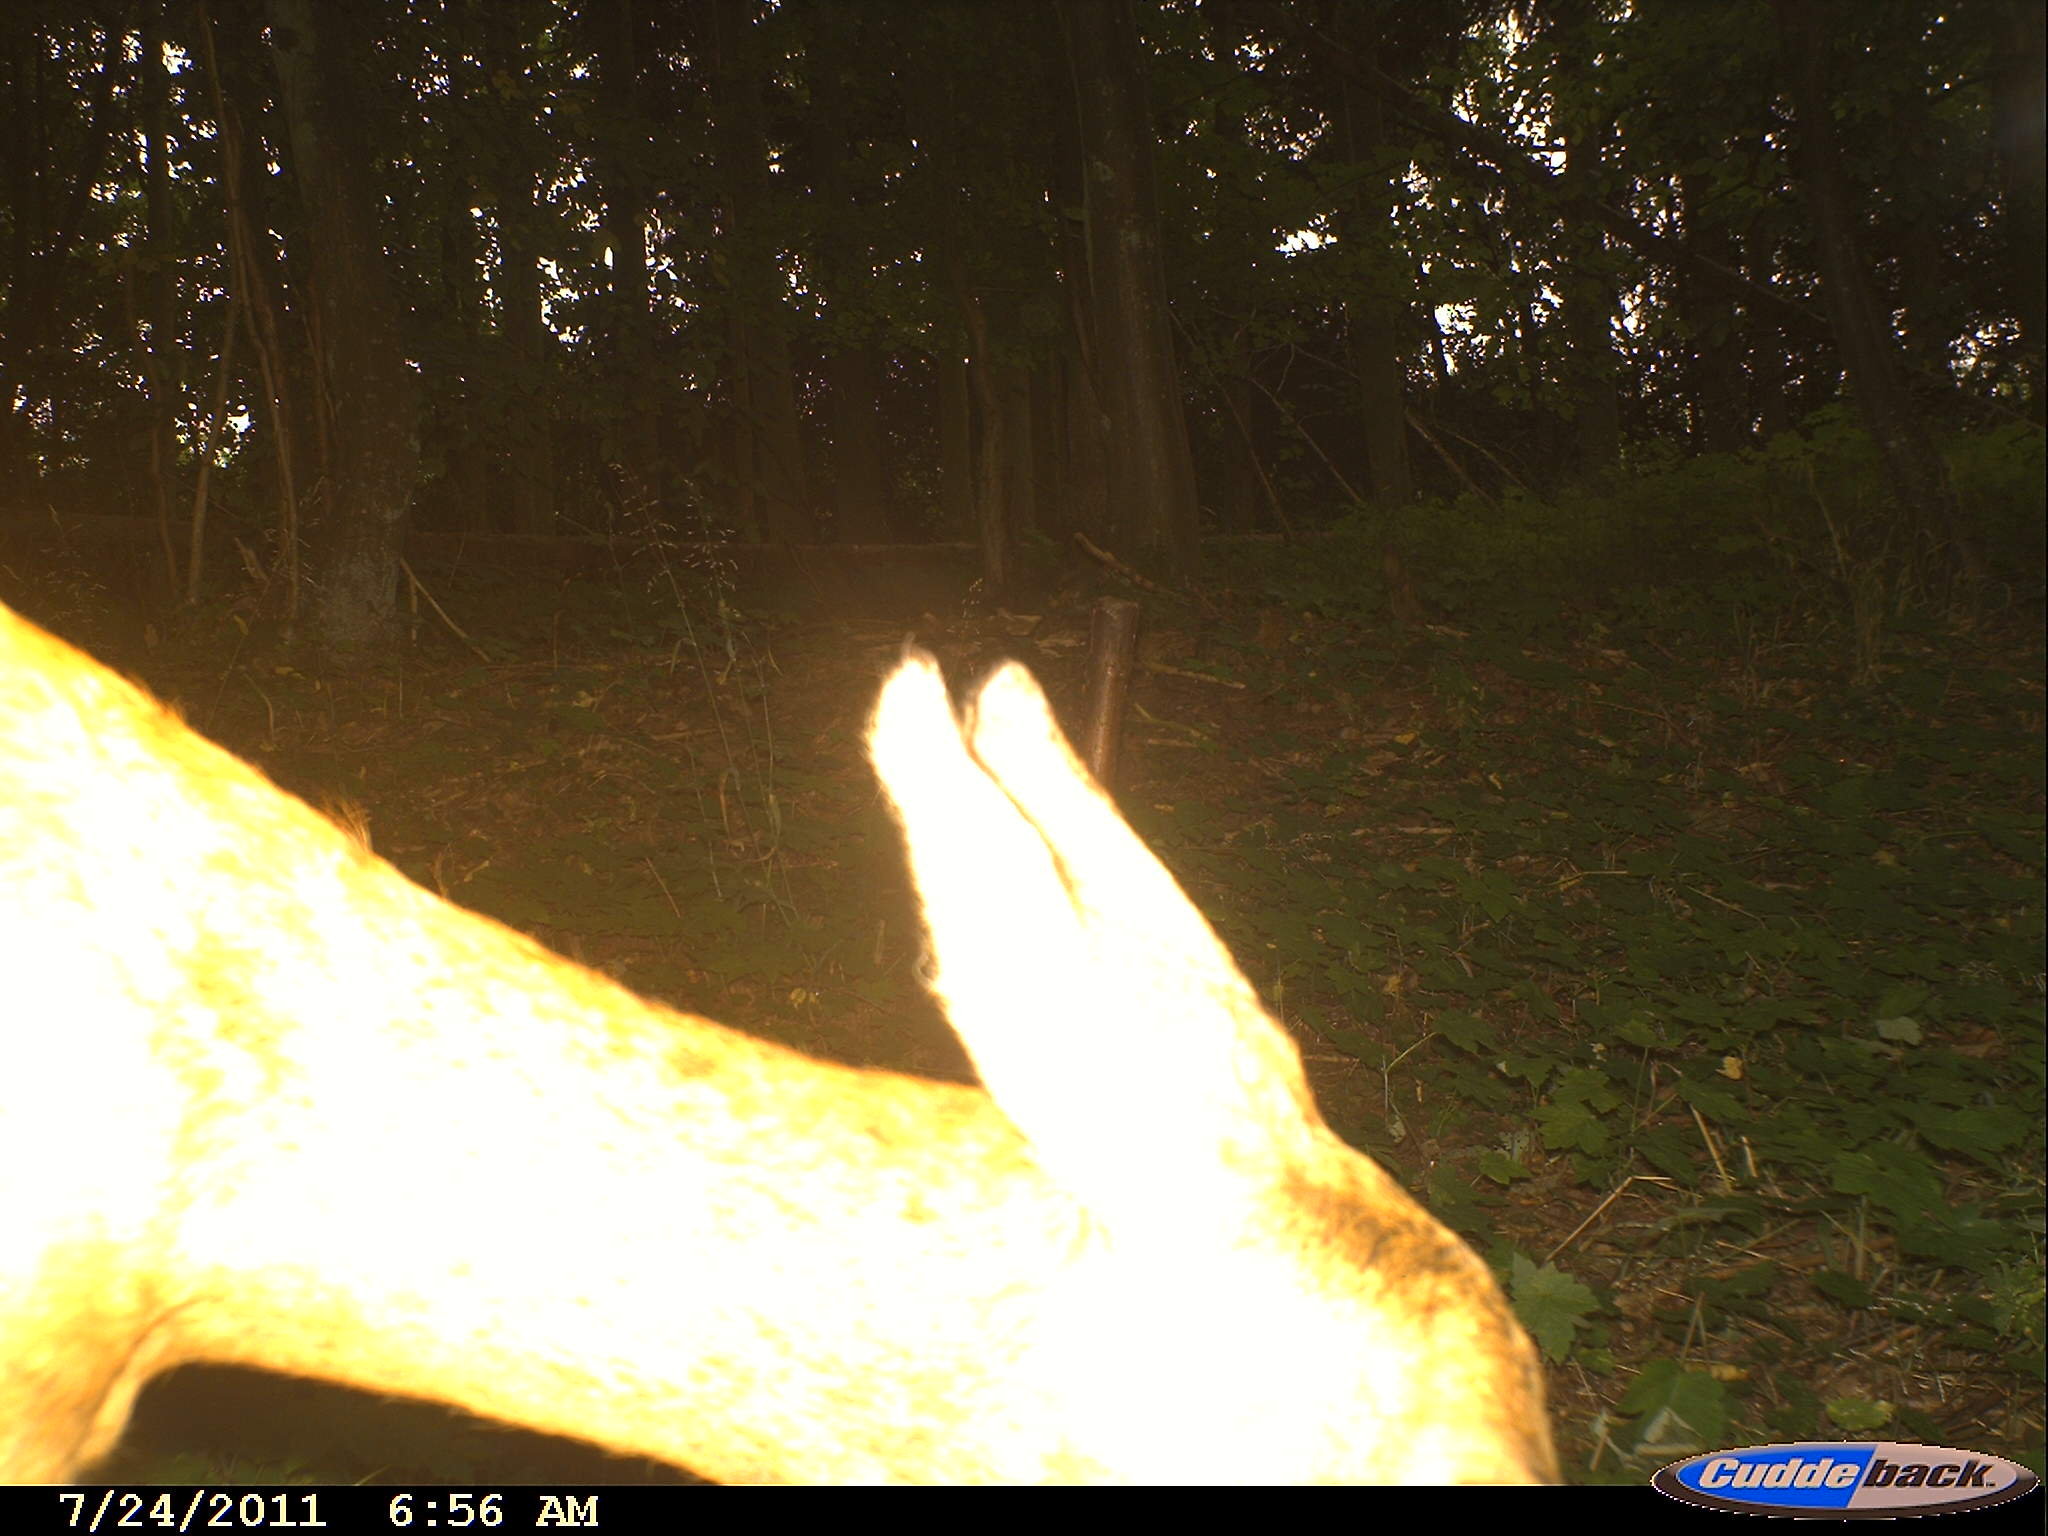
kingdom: Animalia
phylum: Chordata
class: Mammalia
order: Artiodactyla
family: Cervidae
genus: Capreolus
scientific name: Capreolus capreolus
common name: Western roe deer
